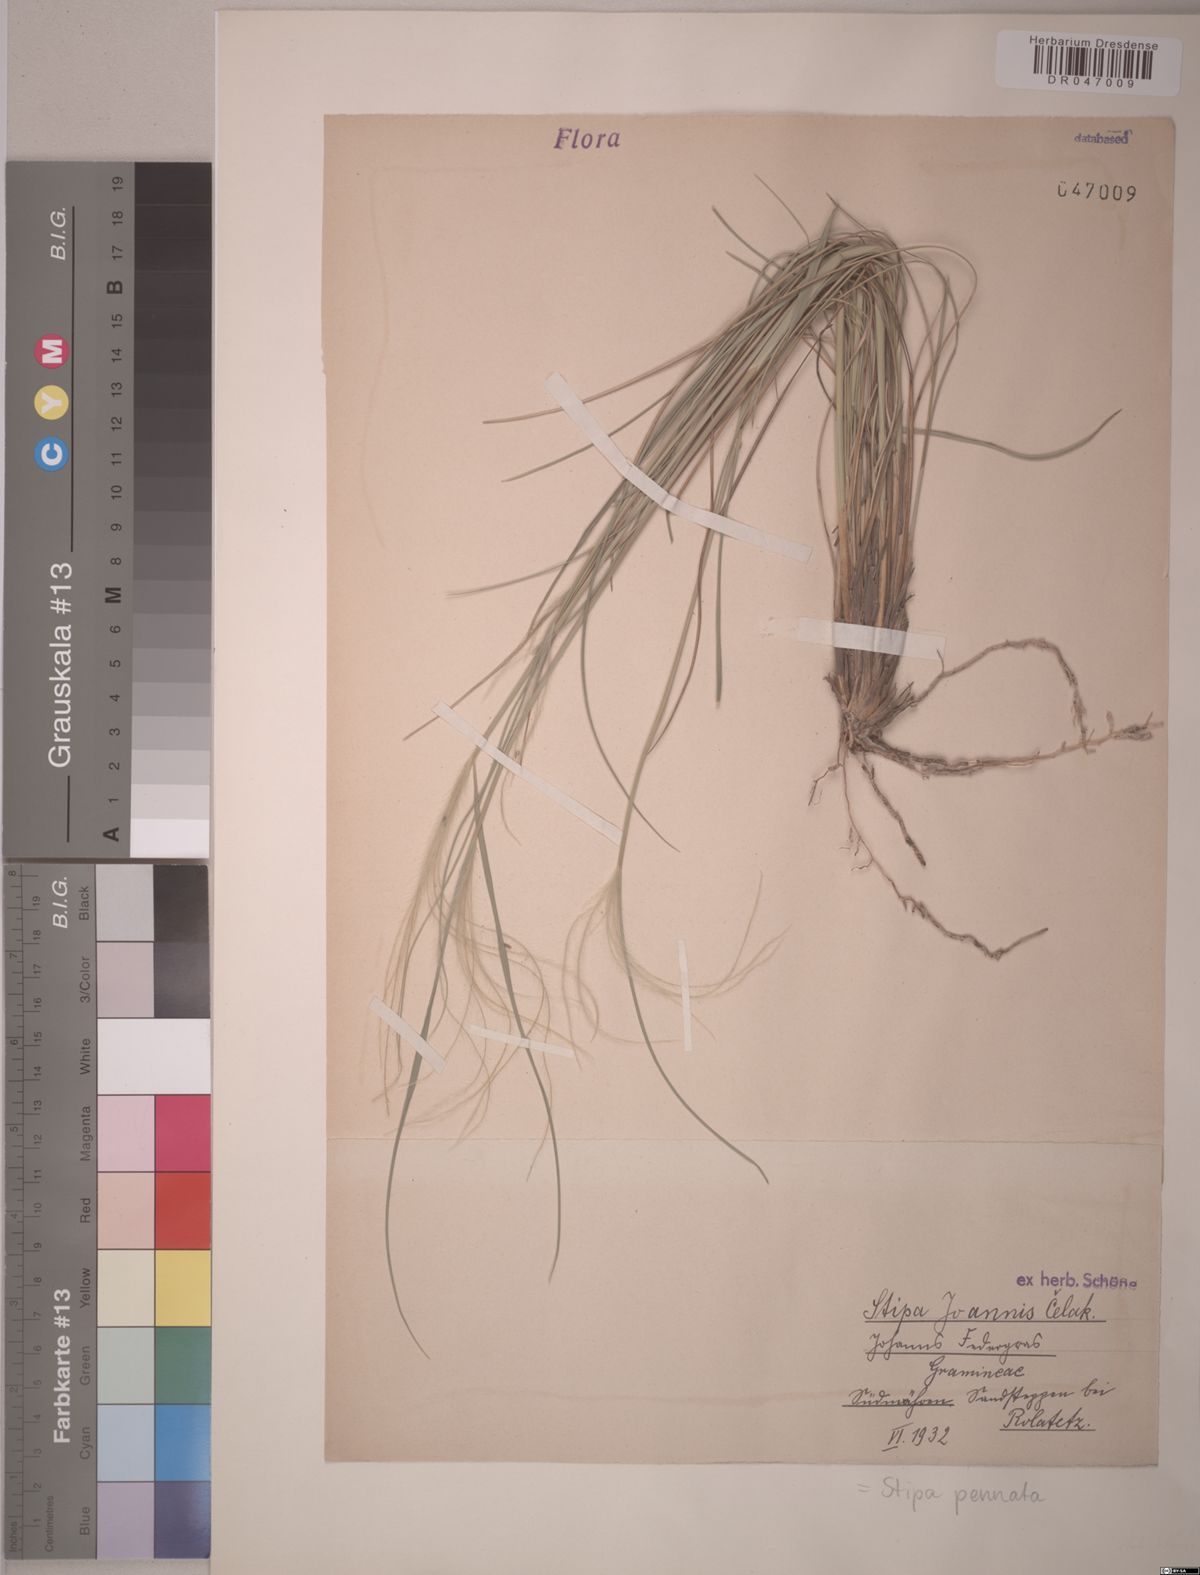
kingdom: Plantae
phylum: Tracheophyta
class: Liliopsida
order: Poales
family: Poaceae
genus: Stipa
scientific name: Stipa pennata
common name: European feather grass
